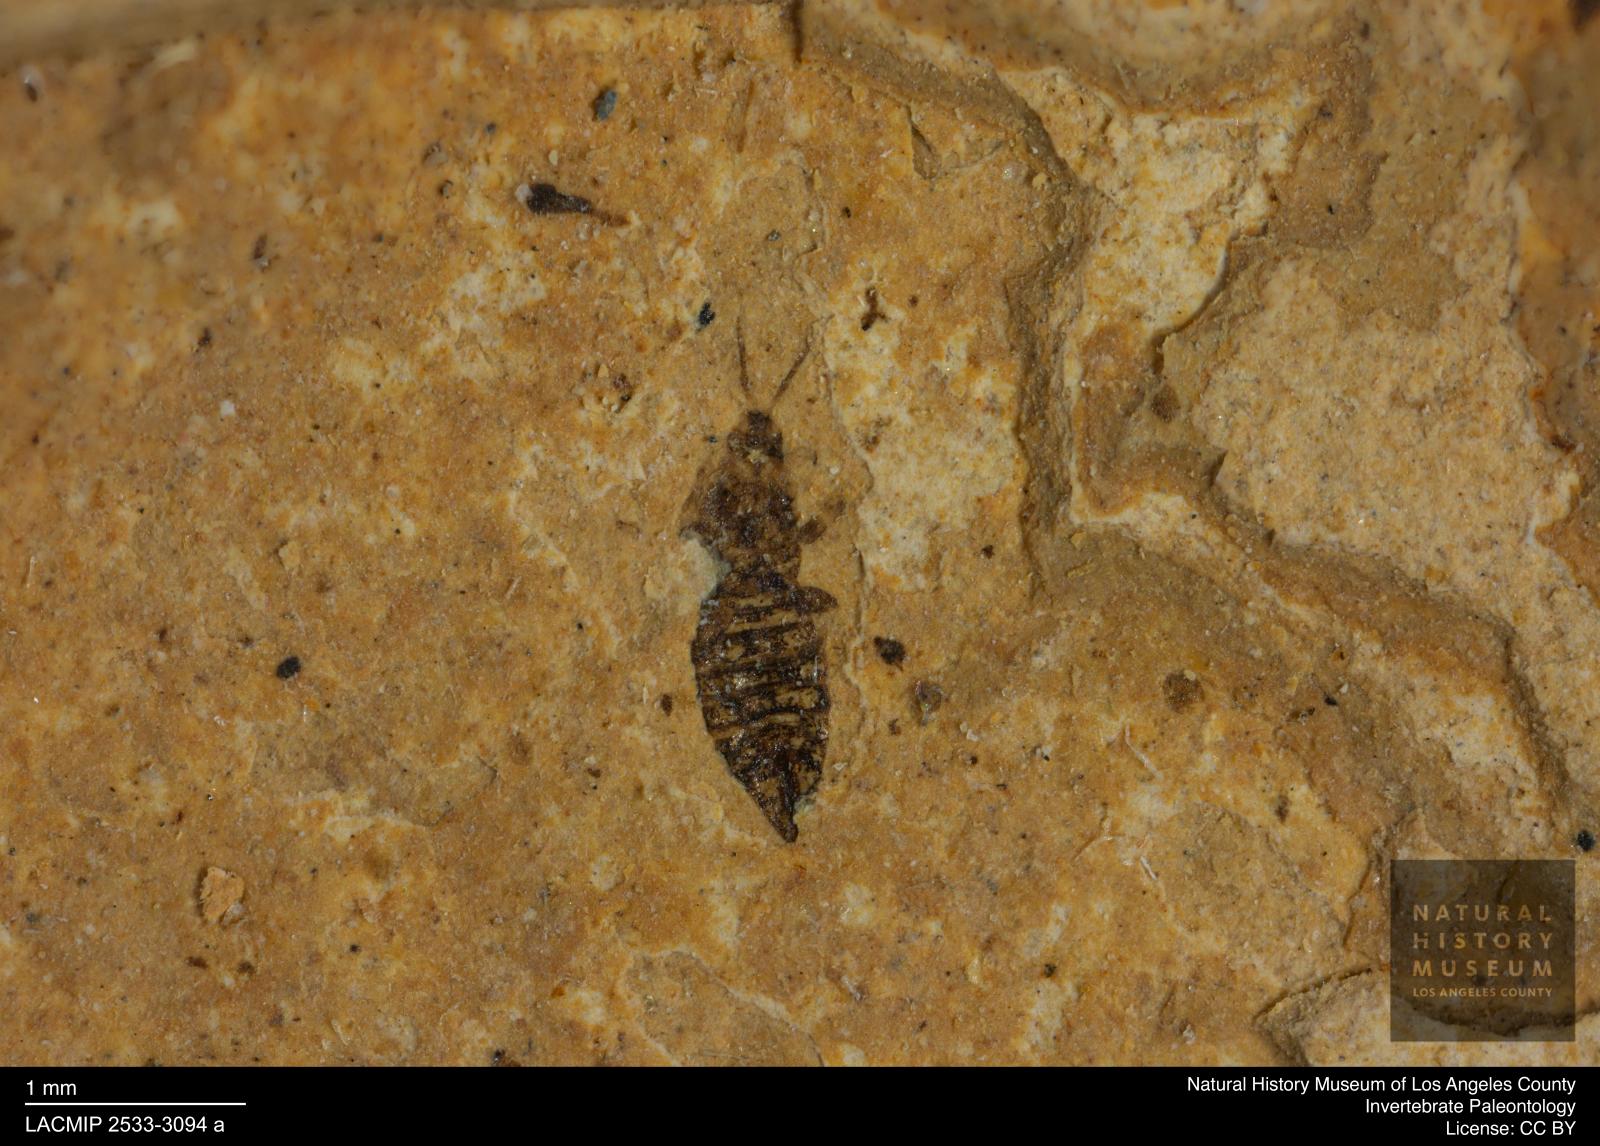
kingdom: Animalia
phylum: Arthropoda
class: Insecta
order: Thysanoptera
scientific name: Thysanoptera
